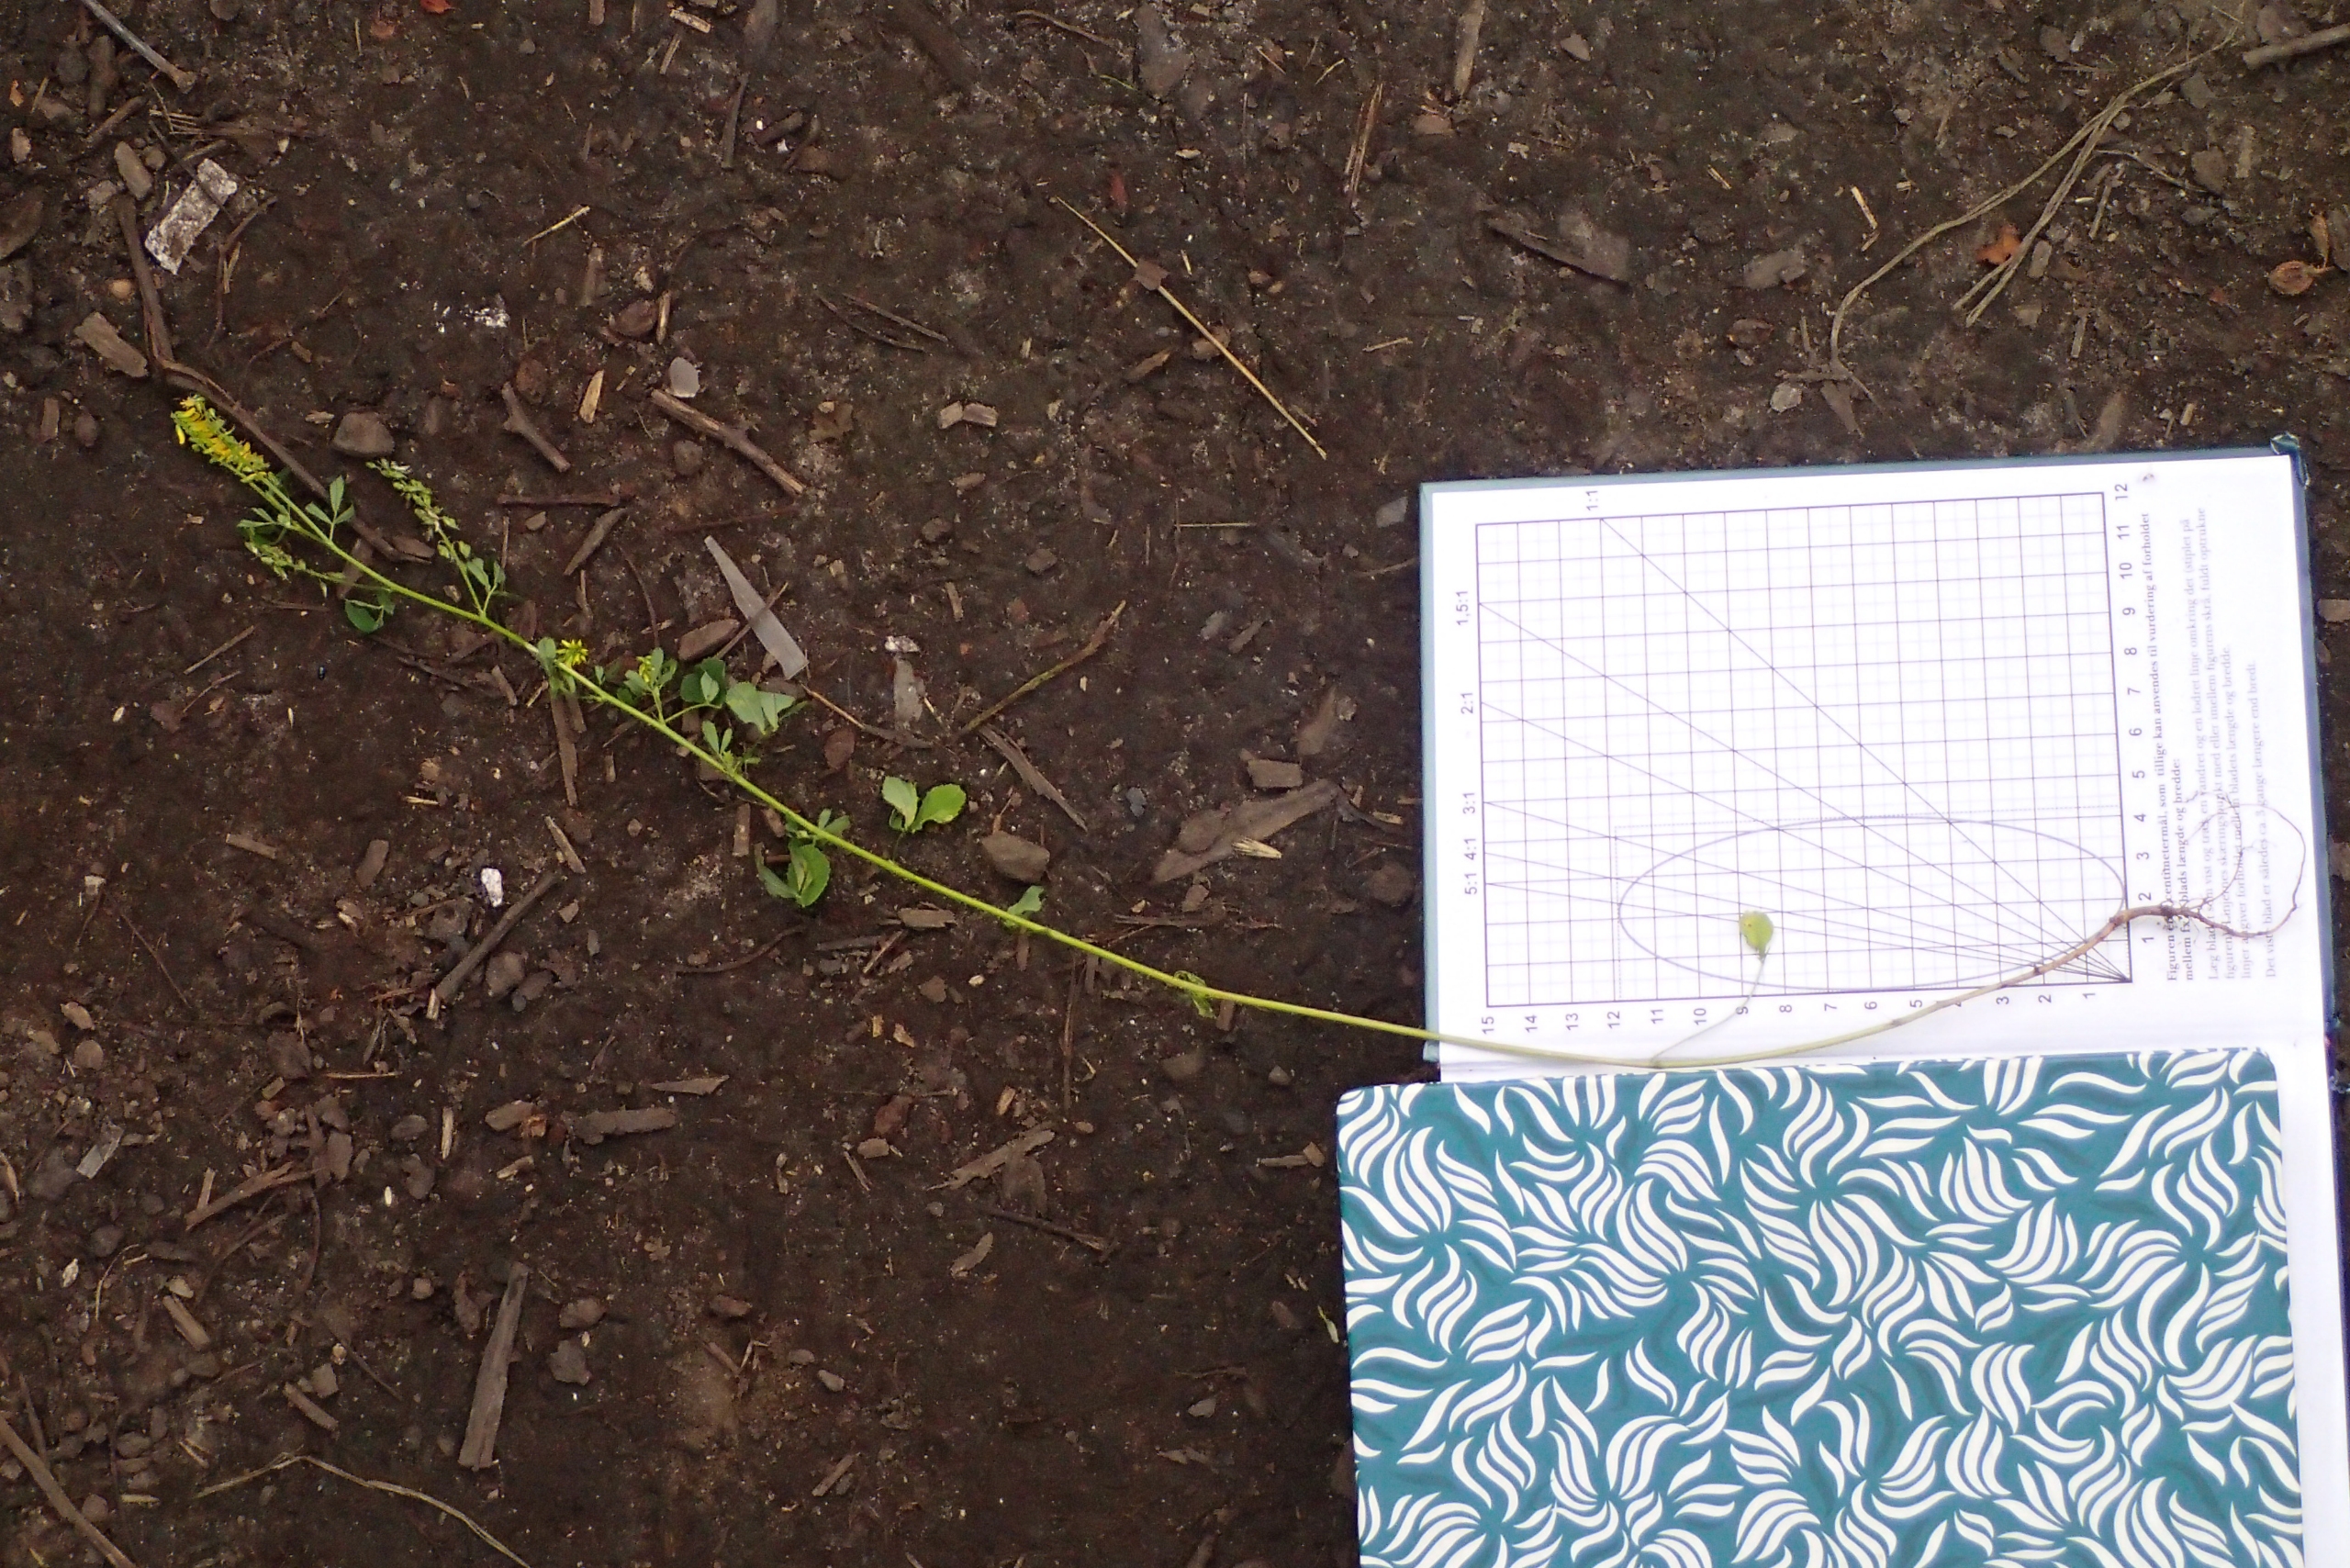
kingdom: Plantae
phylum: Tracheophyta
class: Magnoliopsida
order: Fabales
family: Fabaceae
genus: Melilotus
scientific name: Melilotus altissimus
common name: Høj stenkløver
